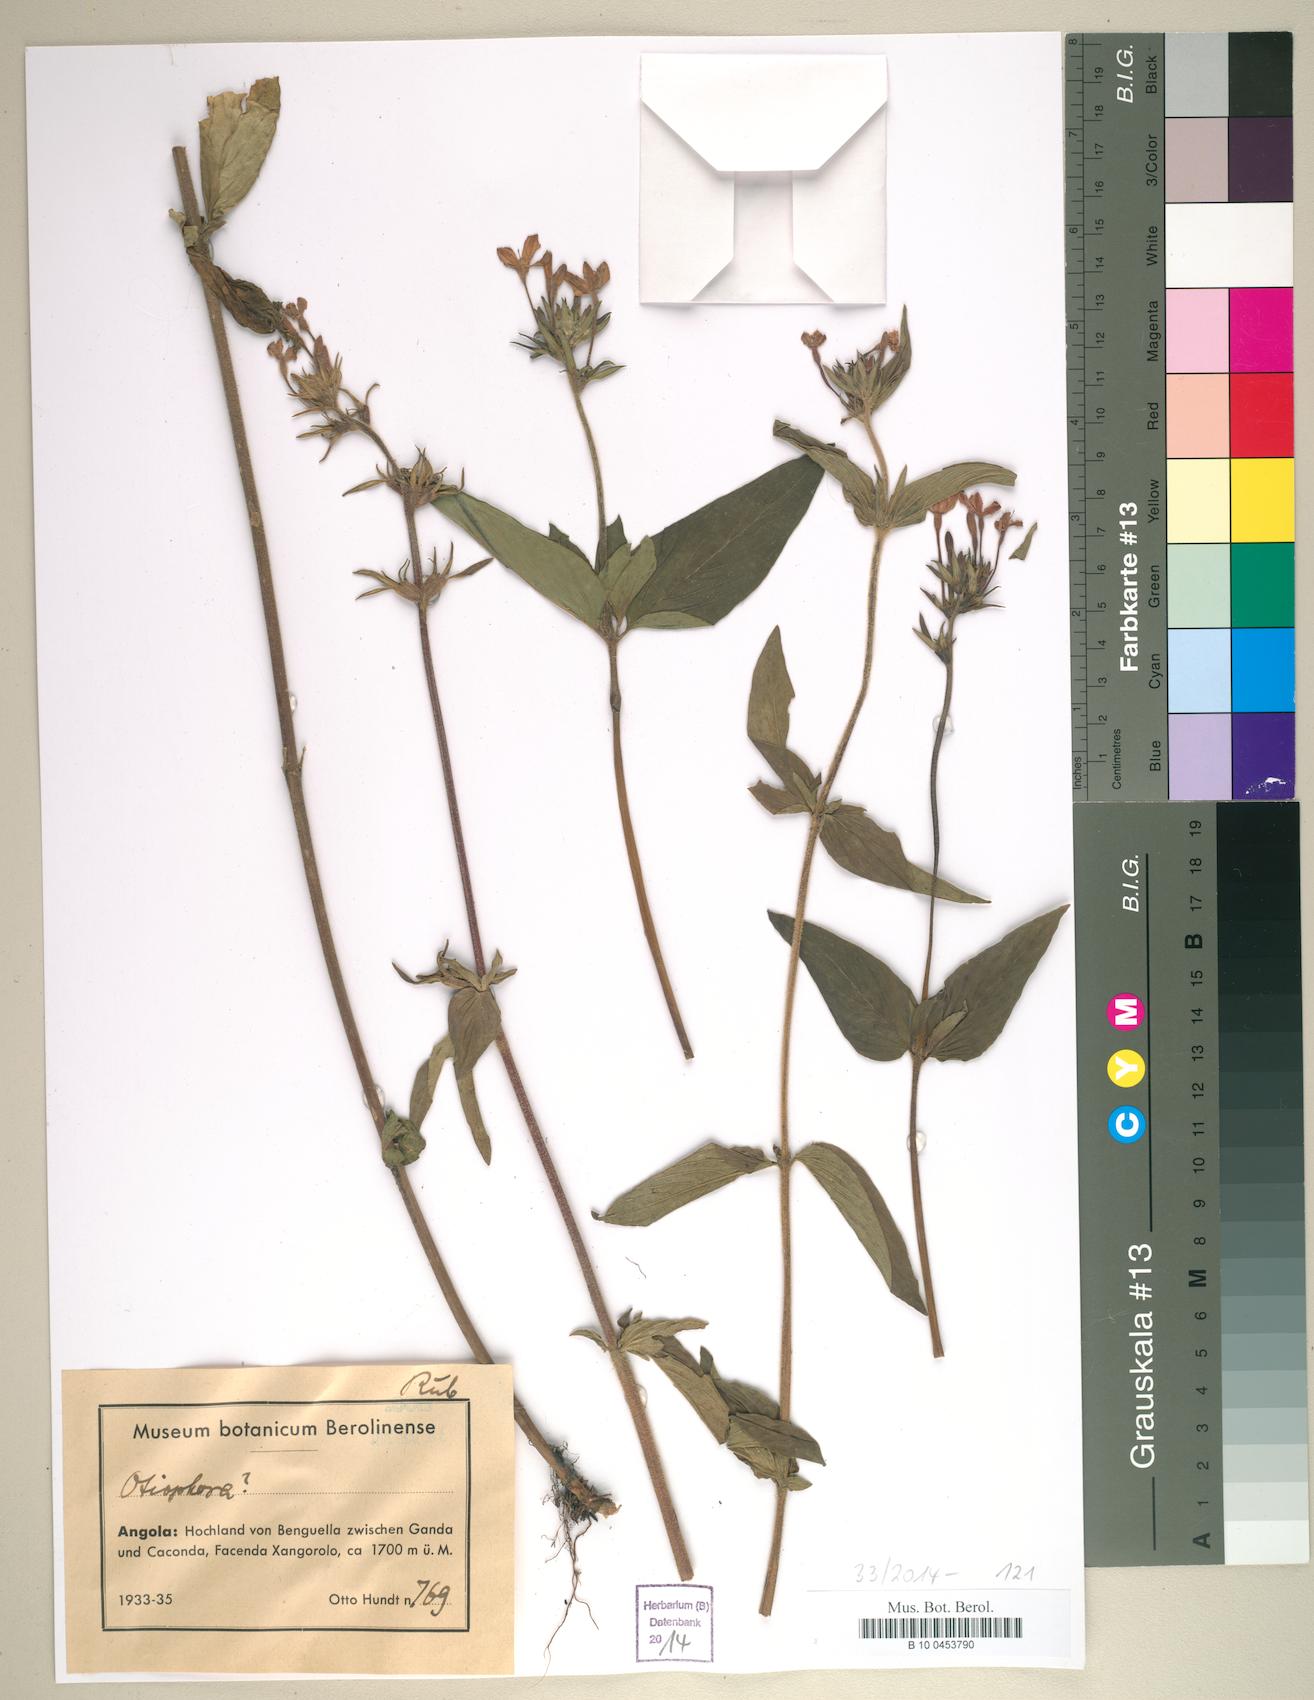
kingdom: Plantae
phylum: Tracheophyta
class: Magnoliopsida
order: Gentianales
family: Rubiaceae
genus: Otiophora
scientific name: Otiophora
